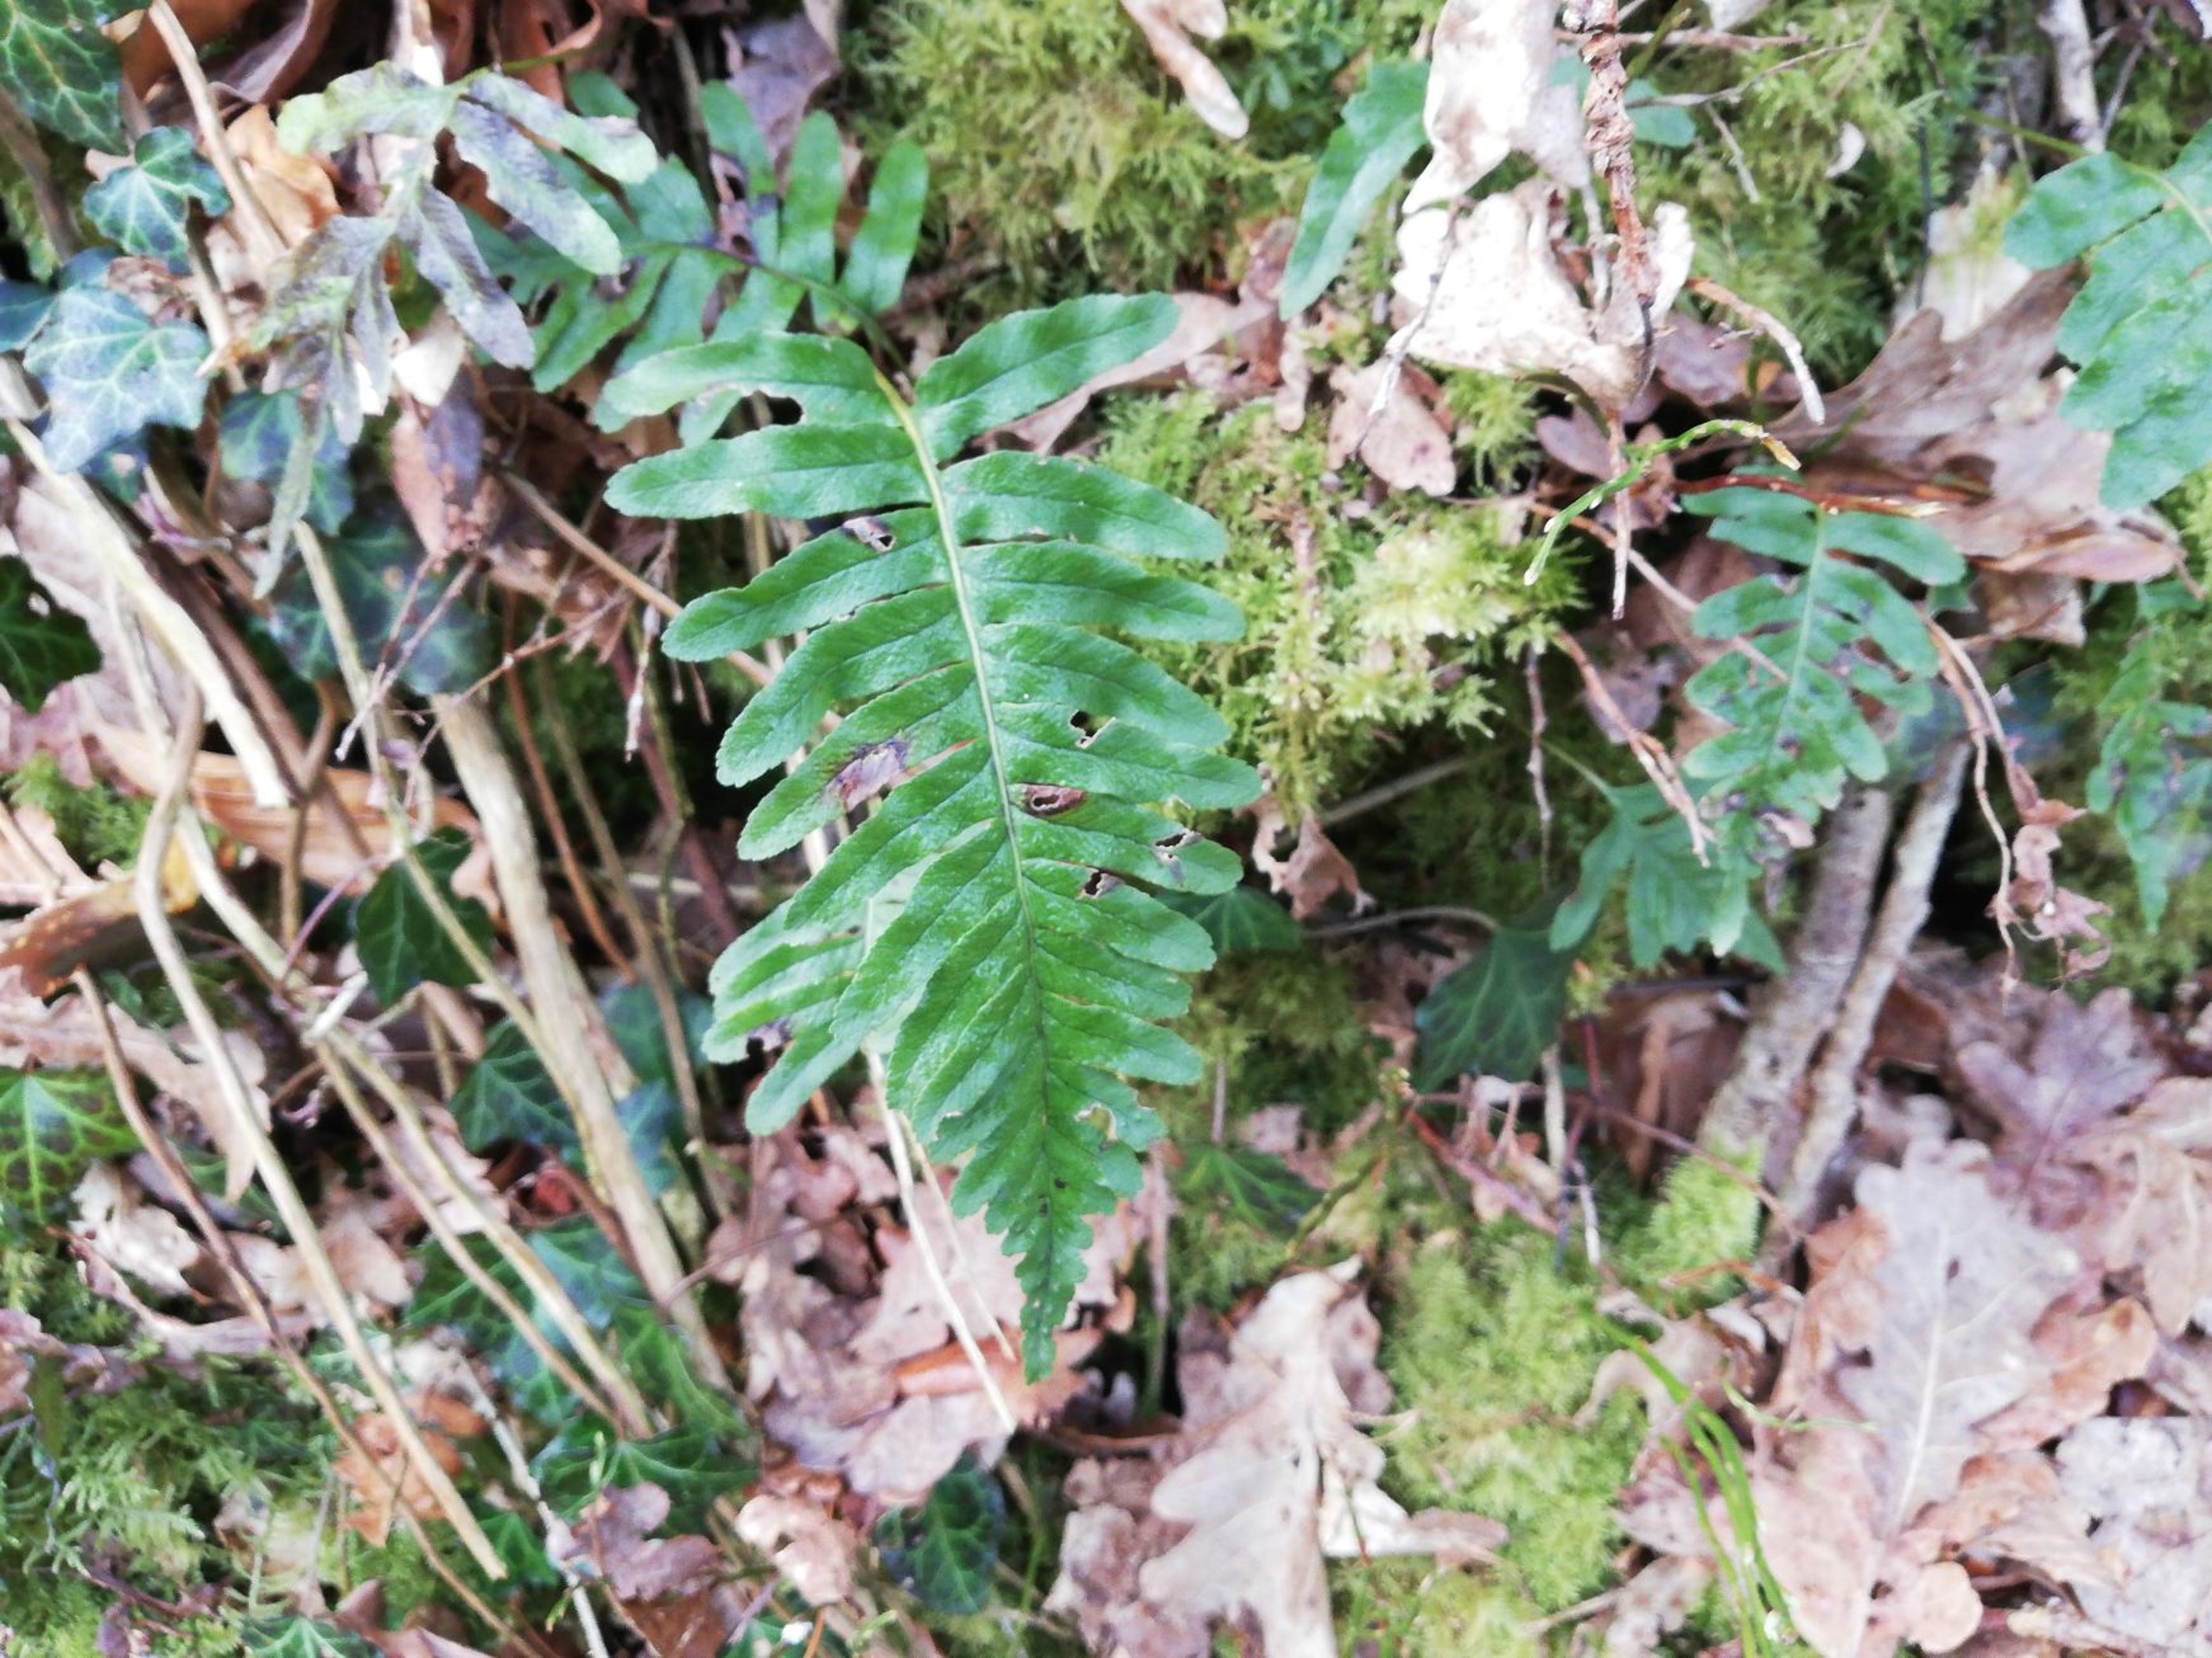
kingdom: Plantae
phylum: Tracheophyta
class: Polypodiopsida
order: Polypodiales
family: Polypodiaceae
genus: Polypodium
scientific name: Polypodium vulgare
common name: Almindelig engelsød
